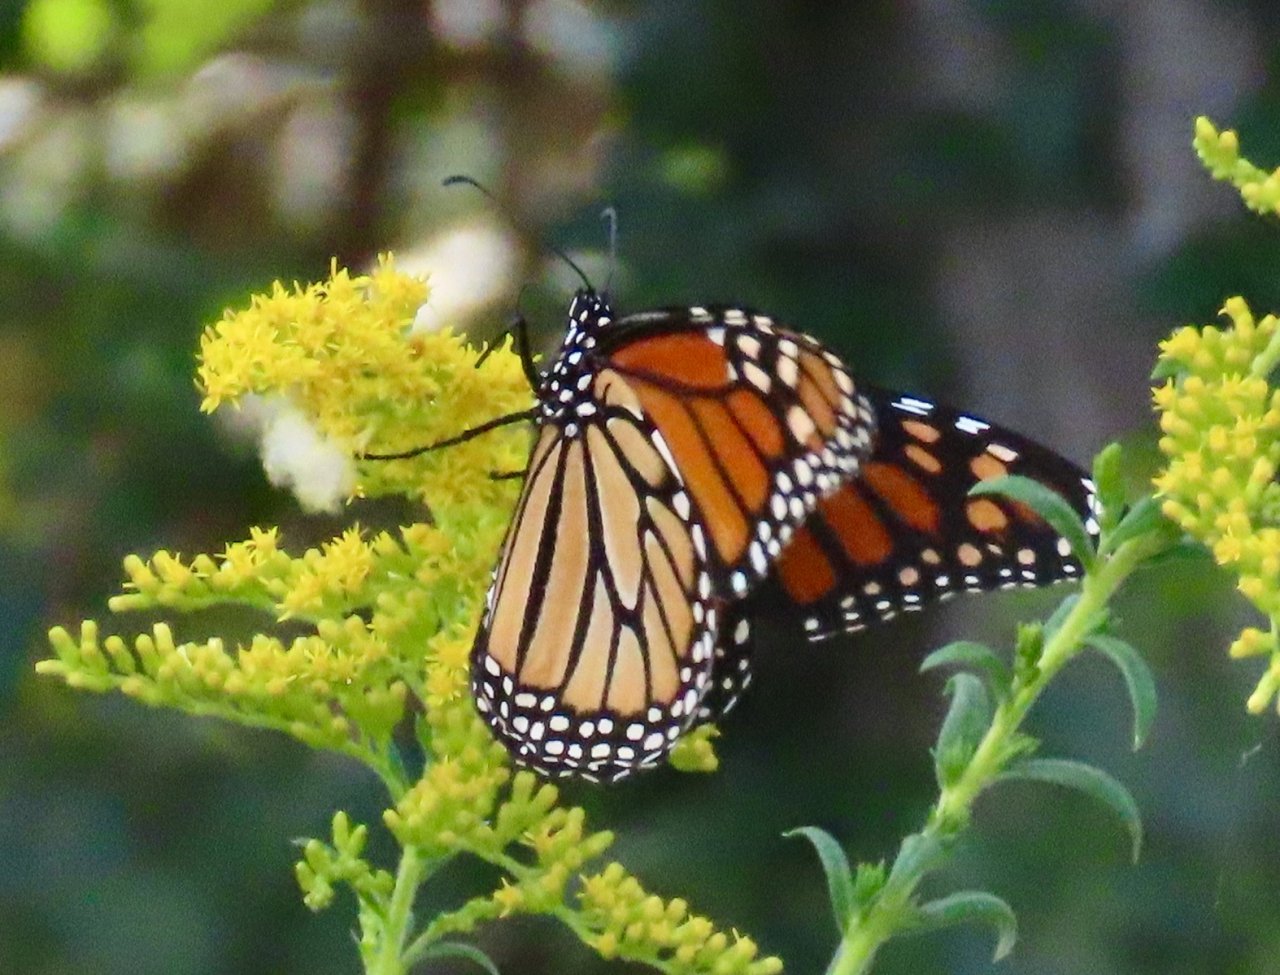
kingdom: Animalia
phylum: Arthropoda
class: Insecta
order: Lepidoptera
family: Nymphalidae
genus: Danaus
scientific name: Danaus plexippus
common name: Monarch
